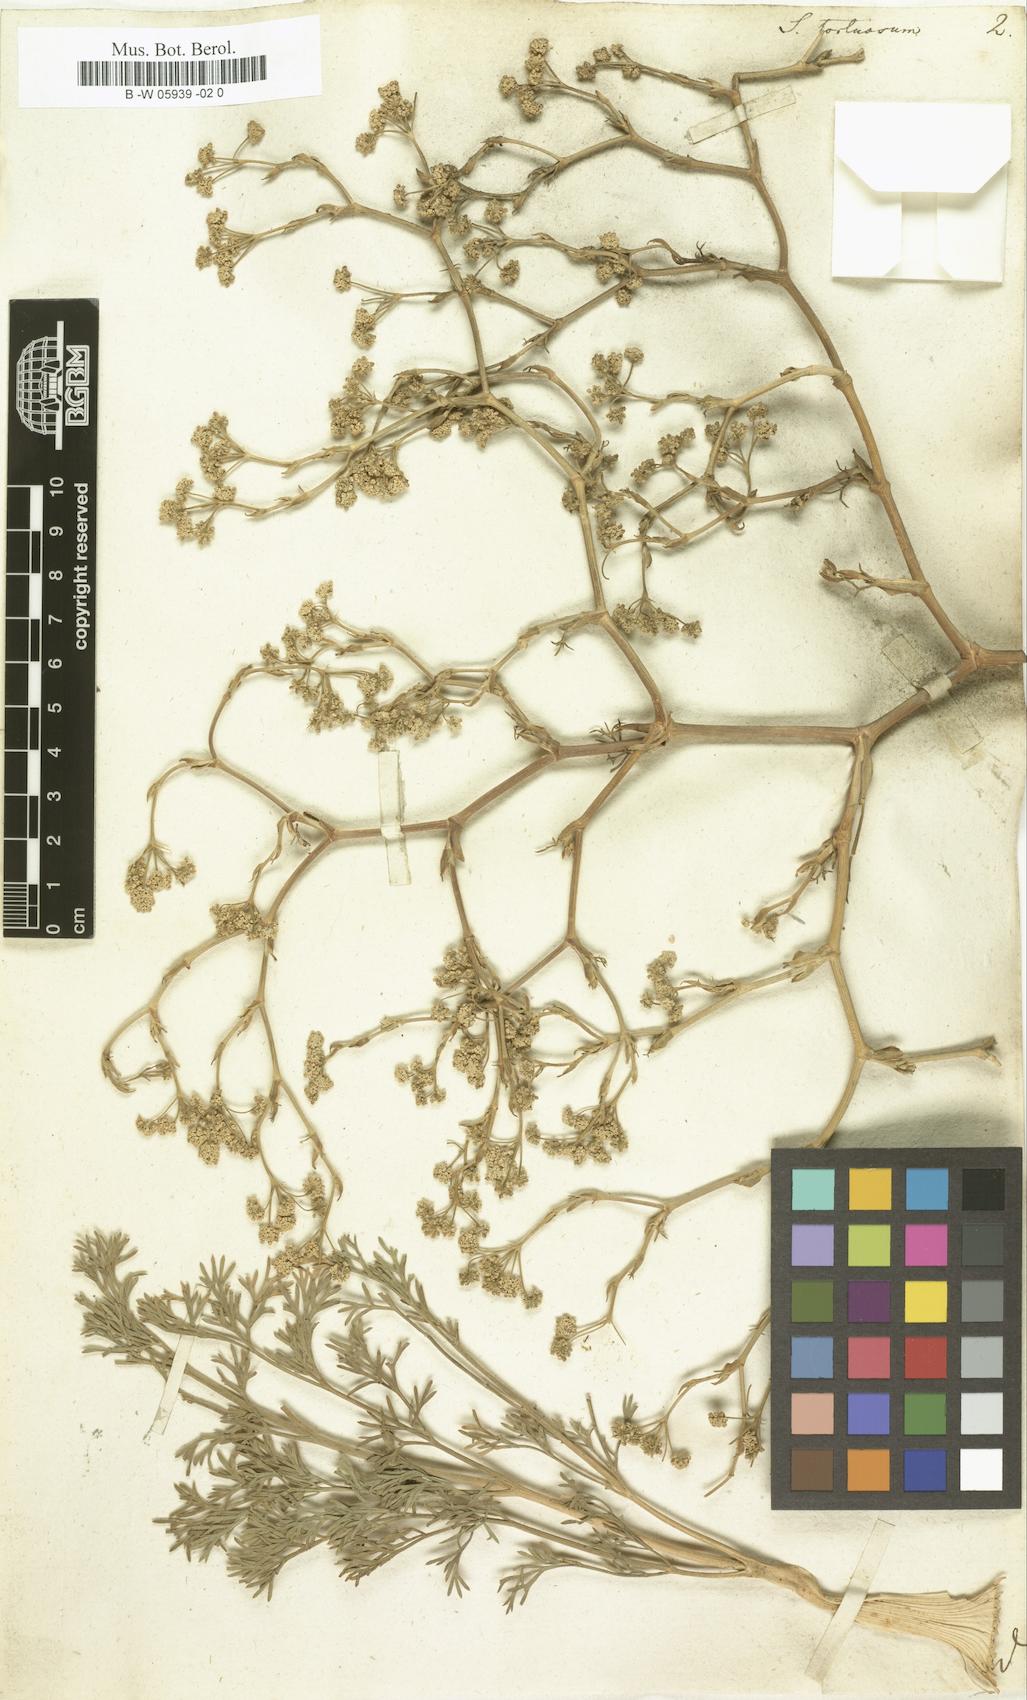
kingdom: Plantae
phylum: Tracheophyta
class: Magnoliopsida
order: Apiales
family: Apiaceae
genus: Seseli
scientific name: Seseli tortuosum
